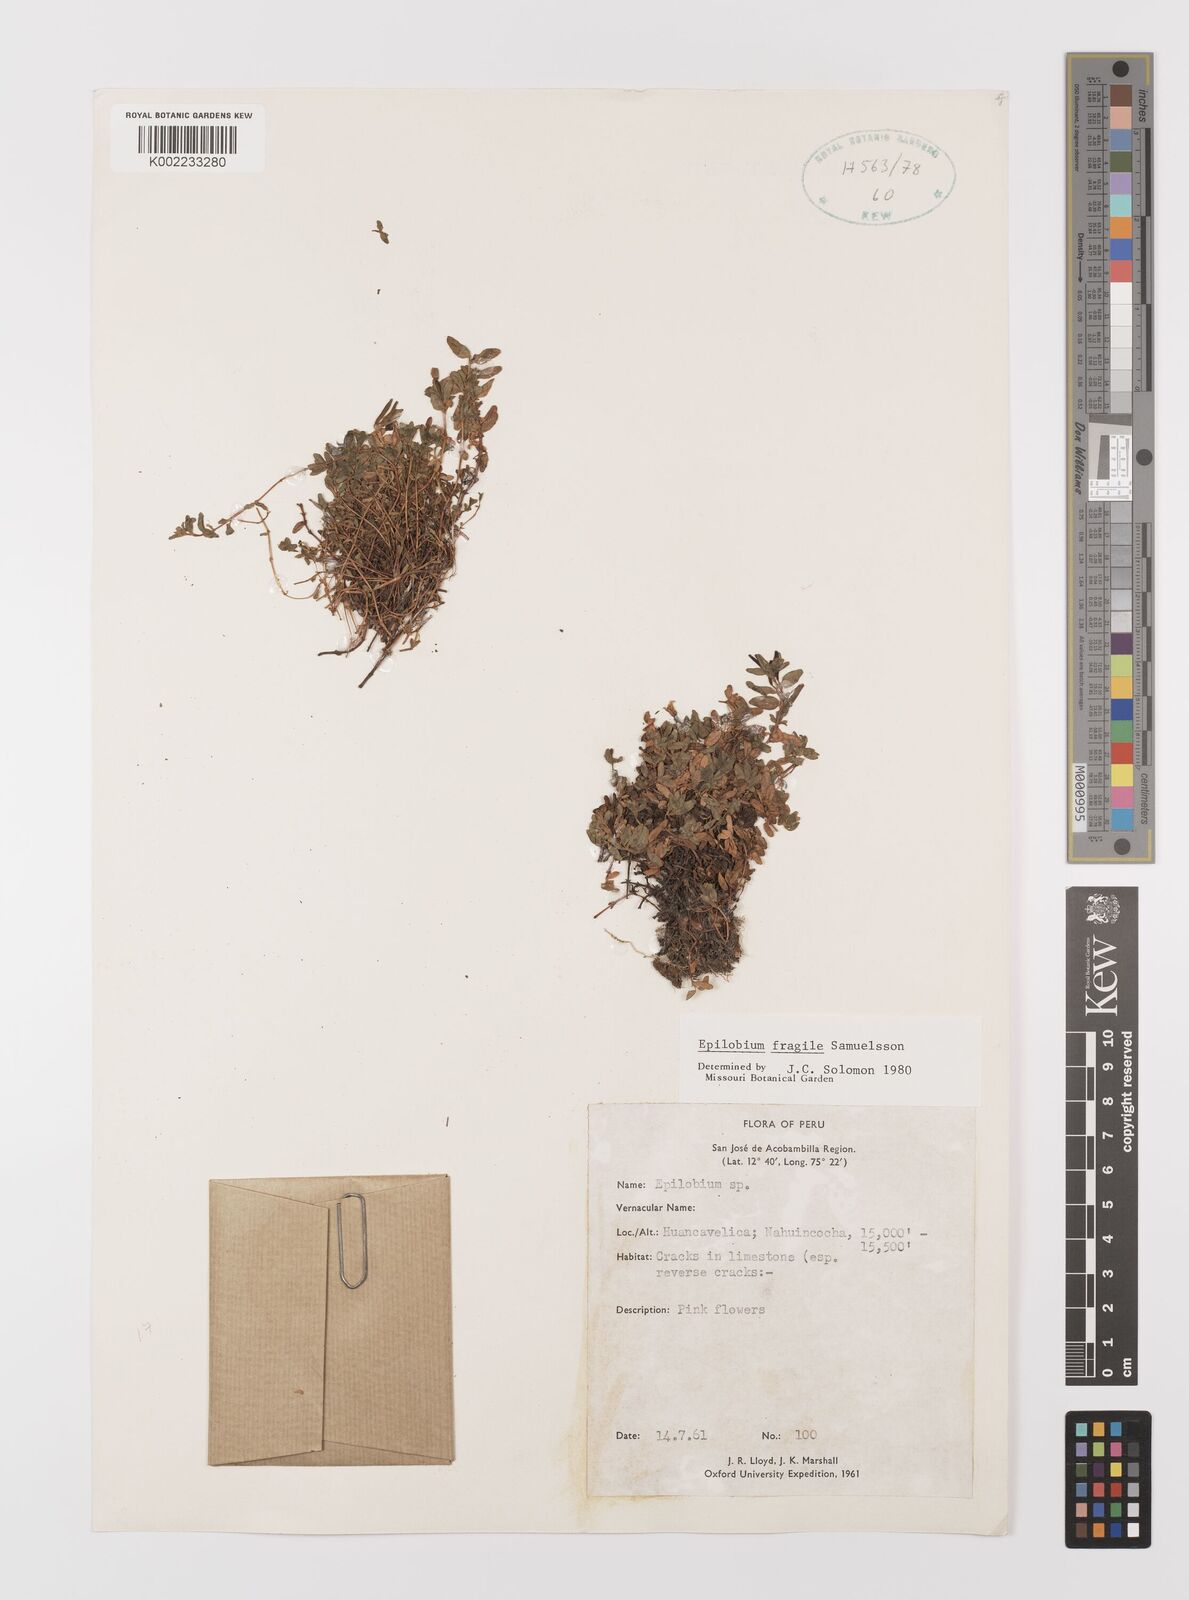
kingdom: Plantae
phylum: Tracheophyta
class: Magnoliopsida
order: Myrtales
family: Onagraceae
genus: Epilobium
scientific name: Epilobium fragile
